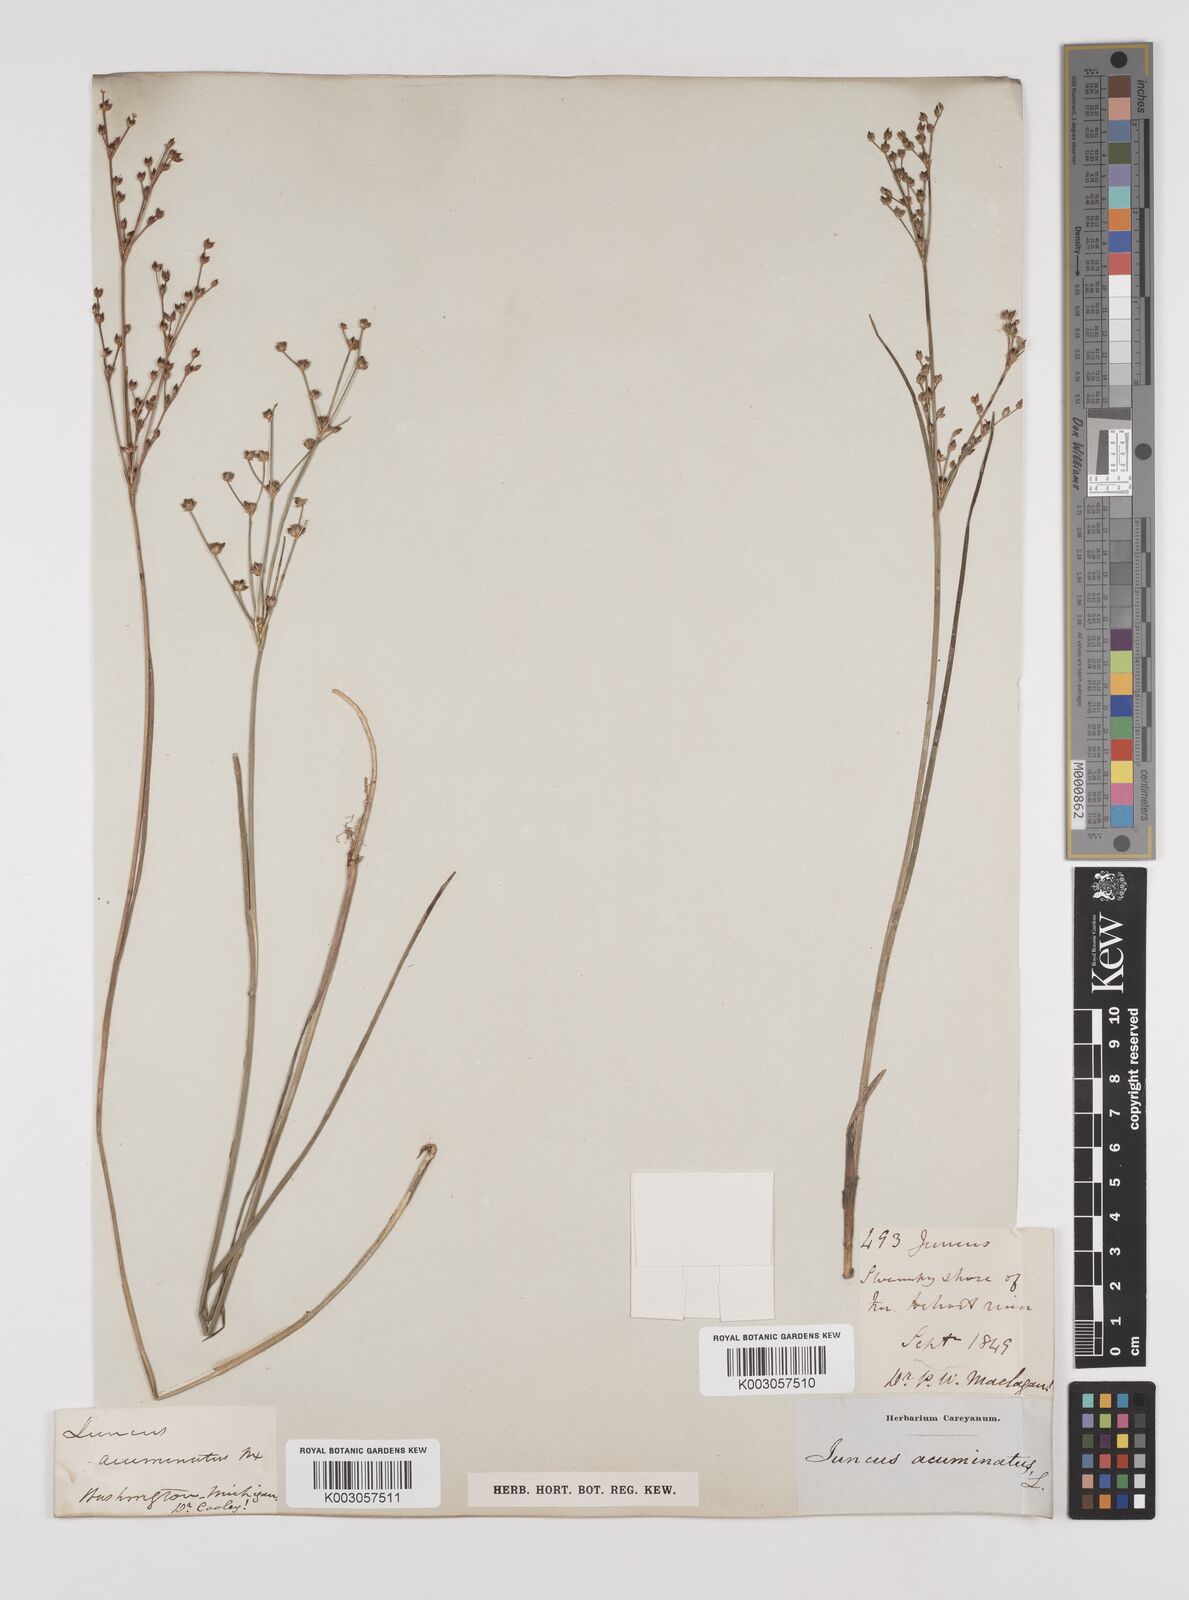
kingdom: Plantae
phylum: Tracheophyta
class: Liliopsida
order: Poales
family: Juncaceae
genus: Juncus
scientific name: Juncus debilis
